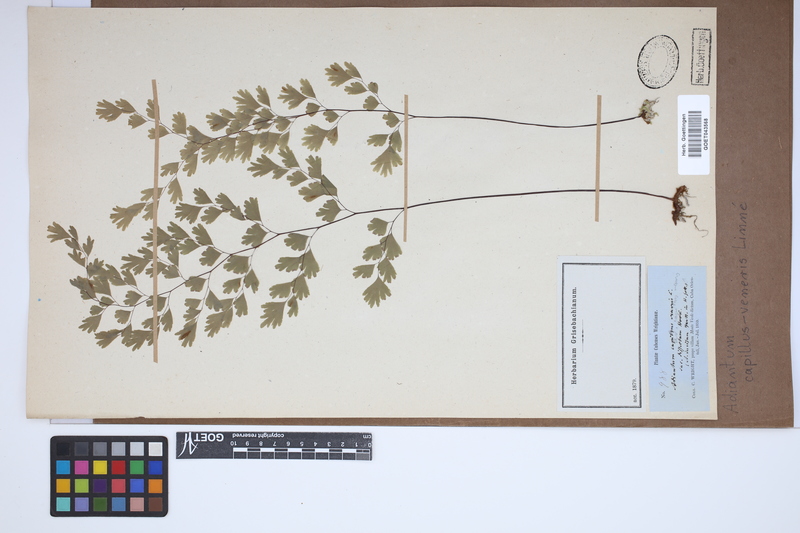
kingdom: Plantae
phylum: Tracheophyta
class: Polypodiopsida
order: Polypodiales
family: Pteridaceae
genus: Adiantum
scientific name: Adiantum capillus-veneris
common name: Maidenhair fern
